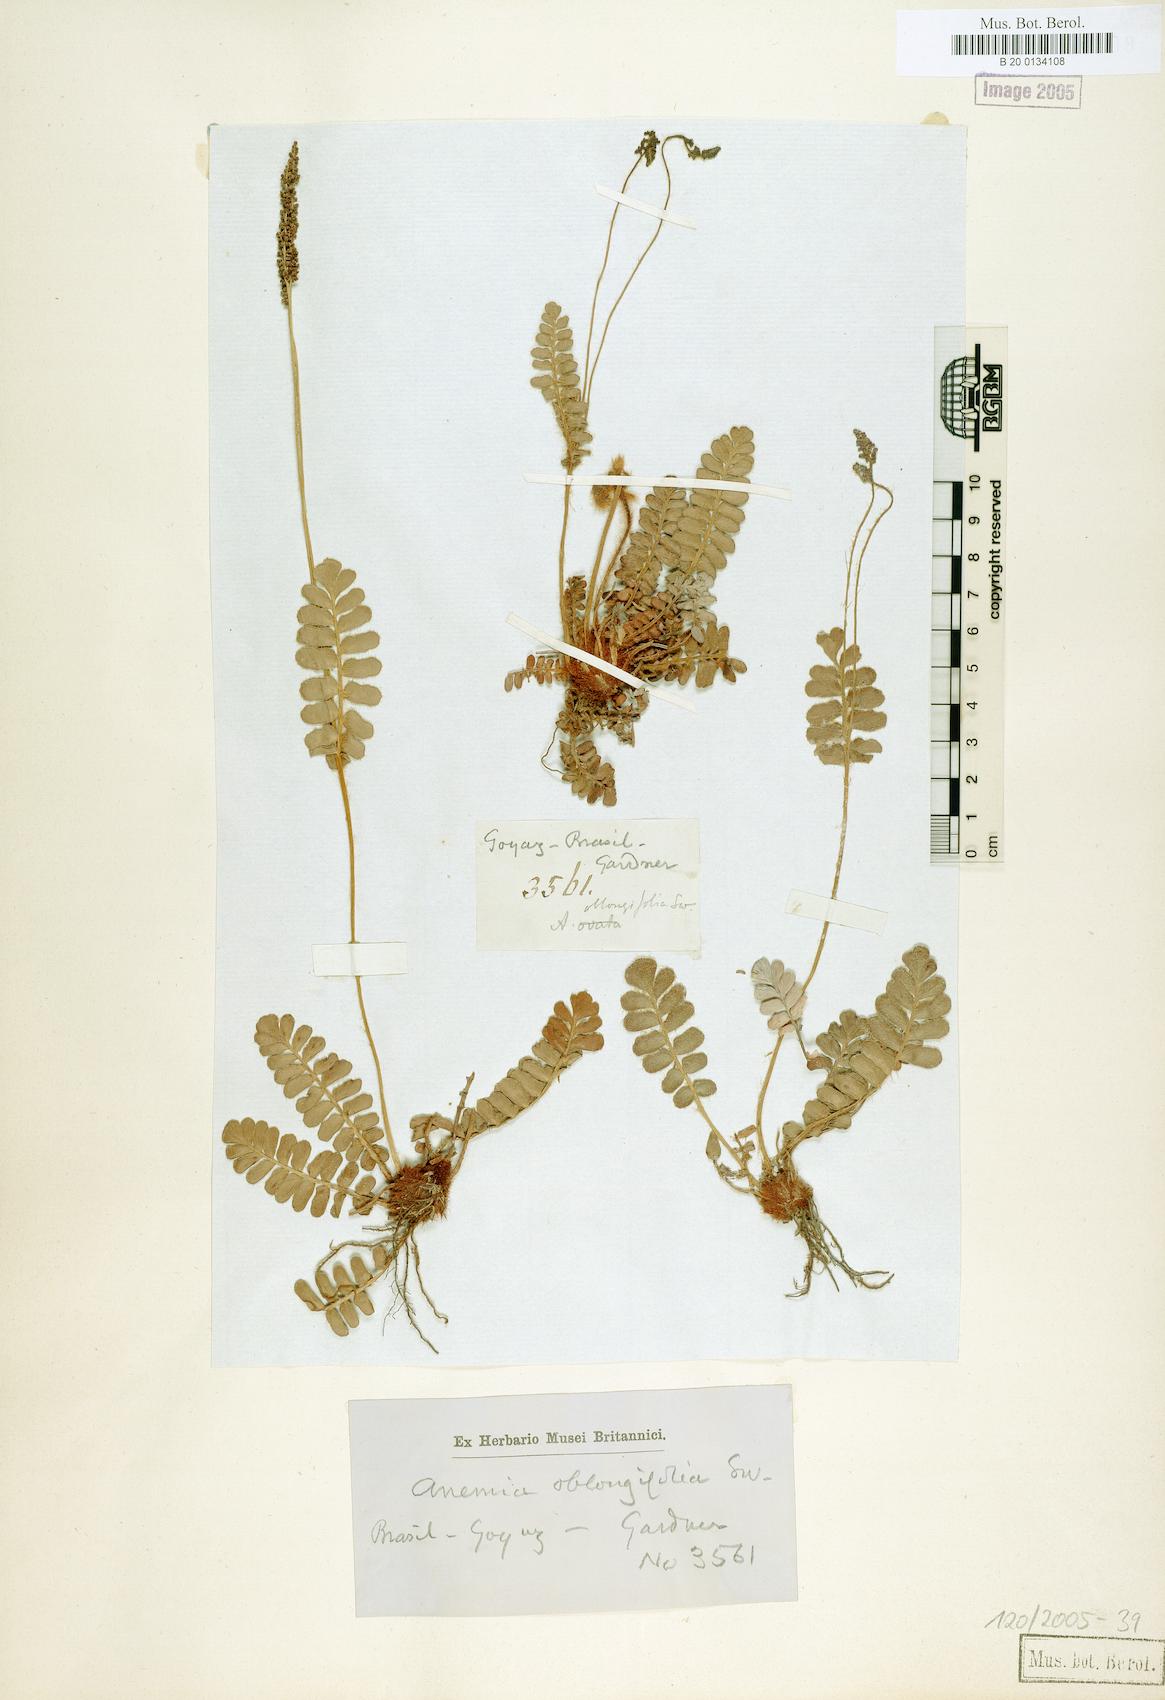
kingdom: Plantae
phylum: Tracheophyta
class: Polypodiopsida
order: Schizaeales
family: Anemiaceae
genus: Anemia
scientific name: Anemia oblongifolia
